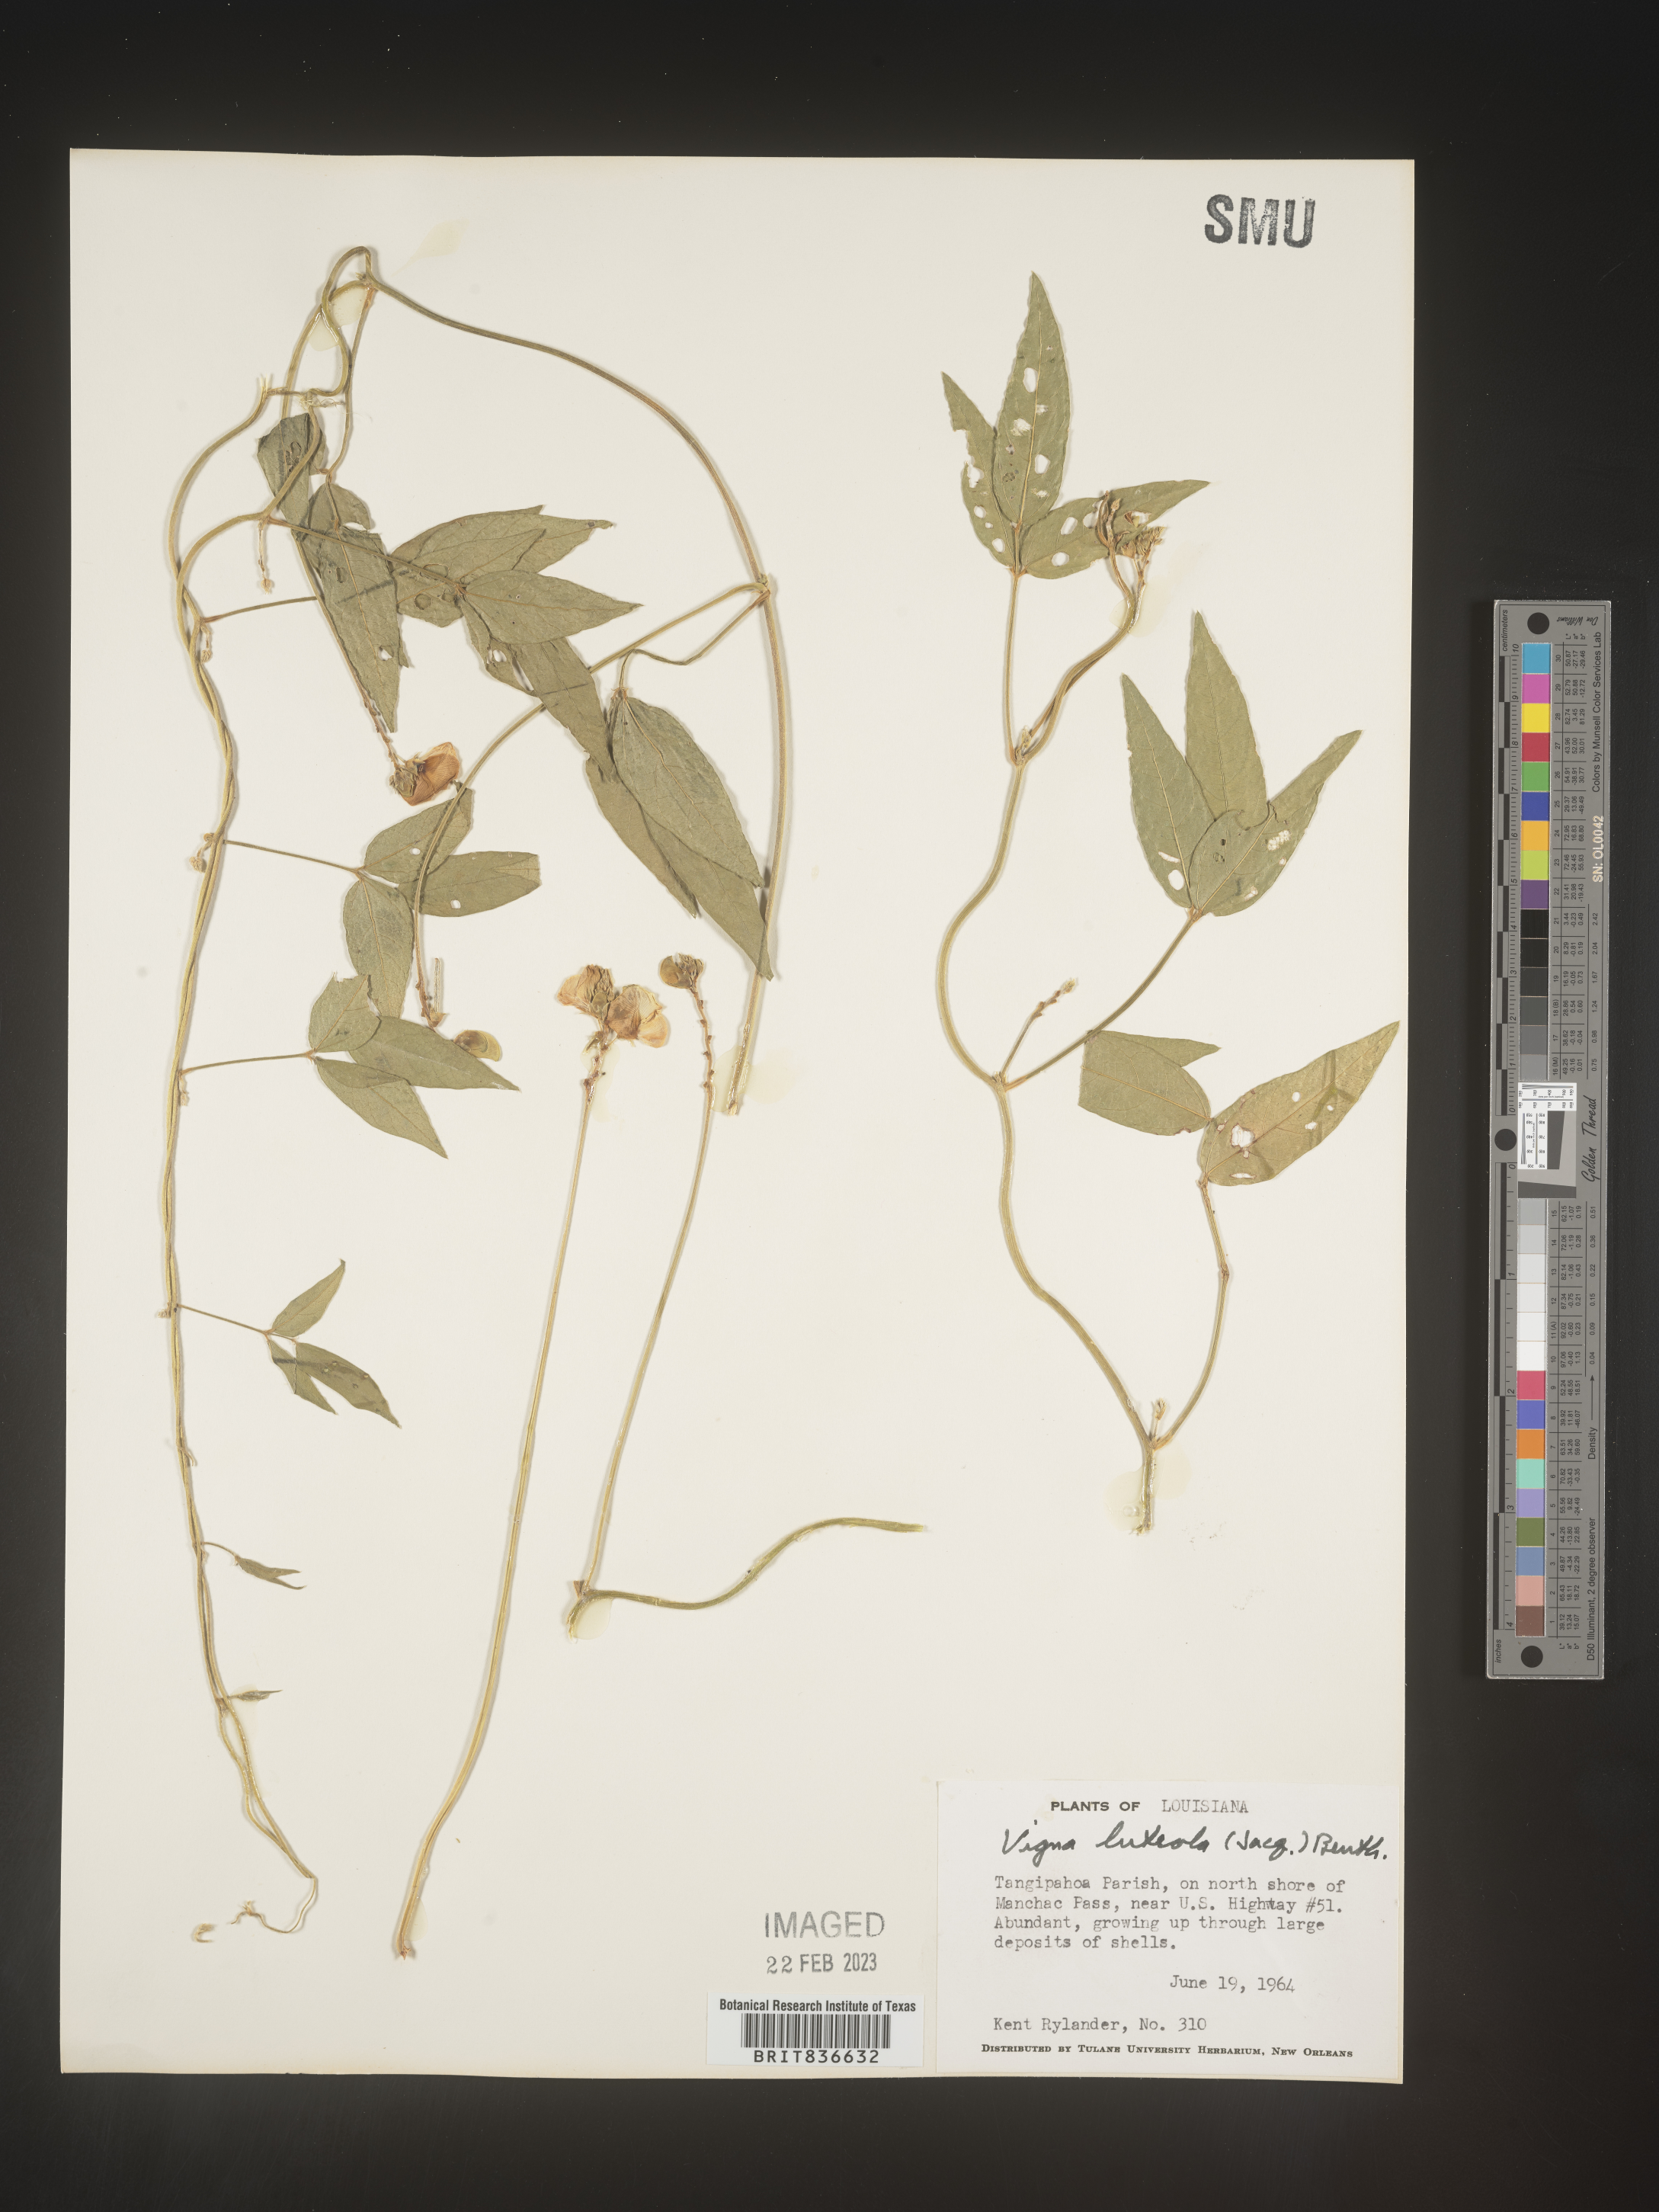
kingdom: Plantae
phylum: Tracheophyta
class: Magnoliopsida
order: Fabales
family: Fabaceae
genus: Vigna
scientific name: Vigna
